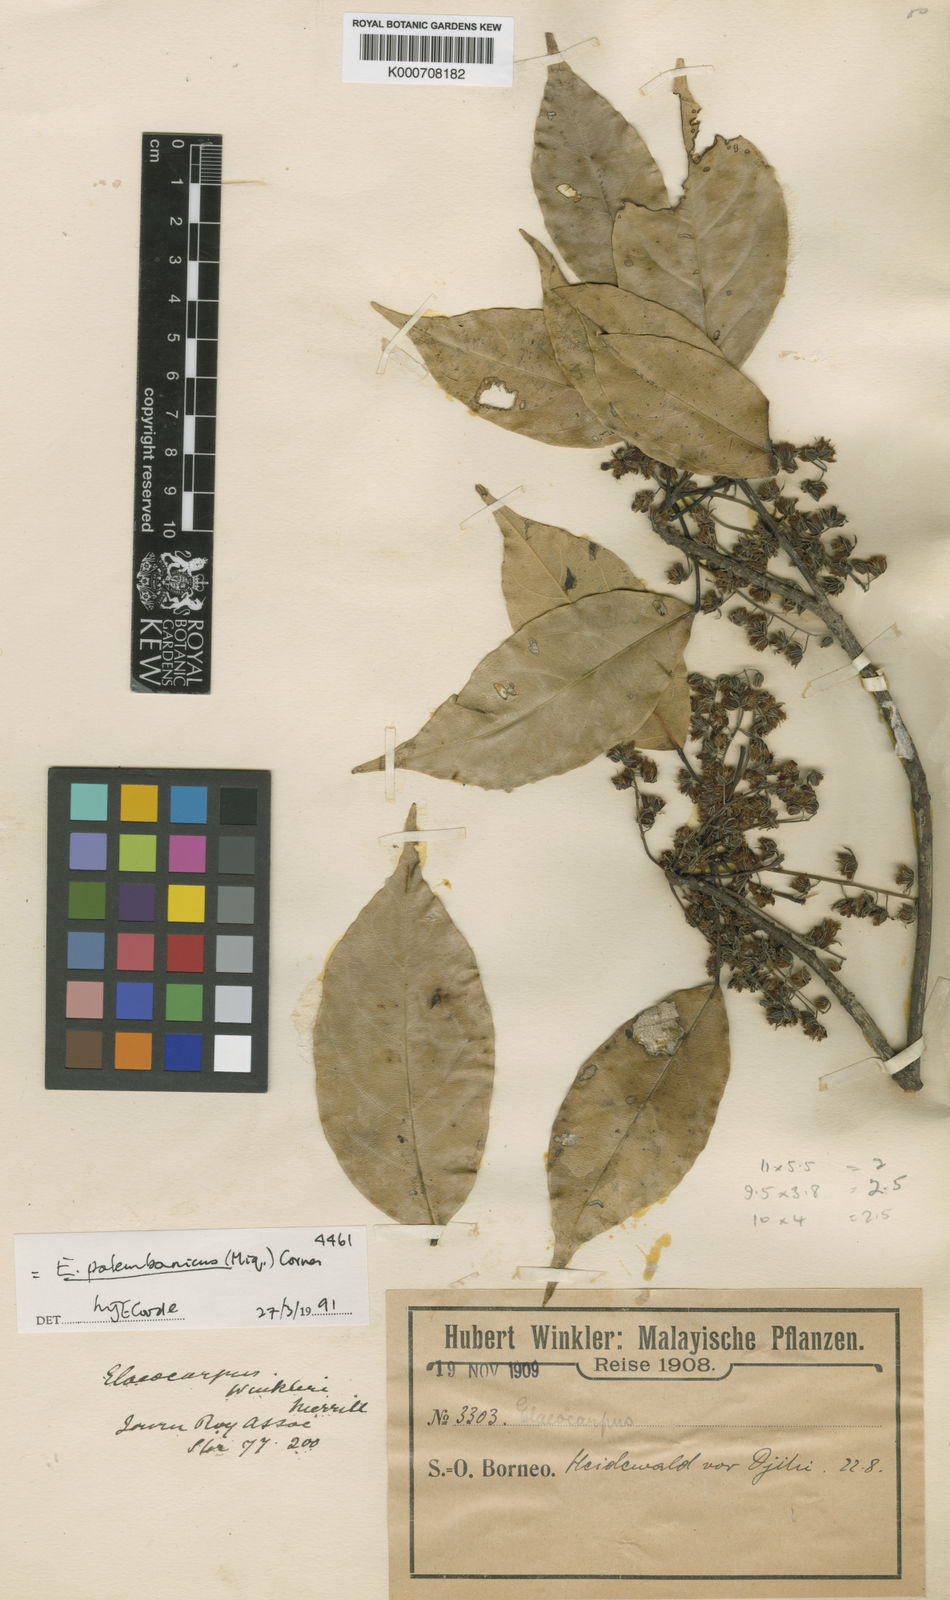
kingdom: Plantae
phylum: Tracheophyta
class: Magnoliopsida
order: Oxalidales
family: Elaeocarpaceae
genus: Elaeocarpus
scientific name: Elaeocarpus palembanicus
